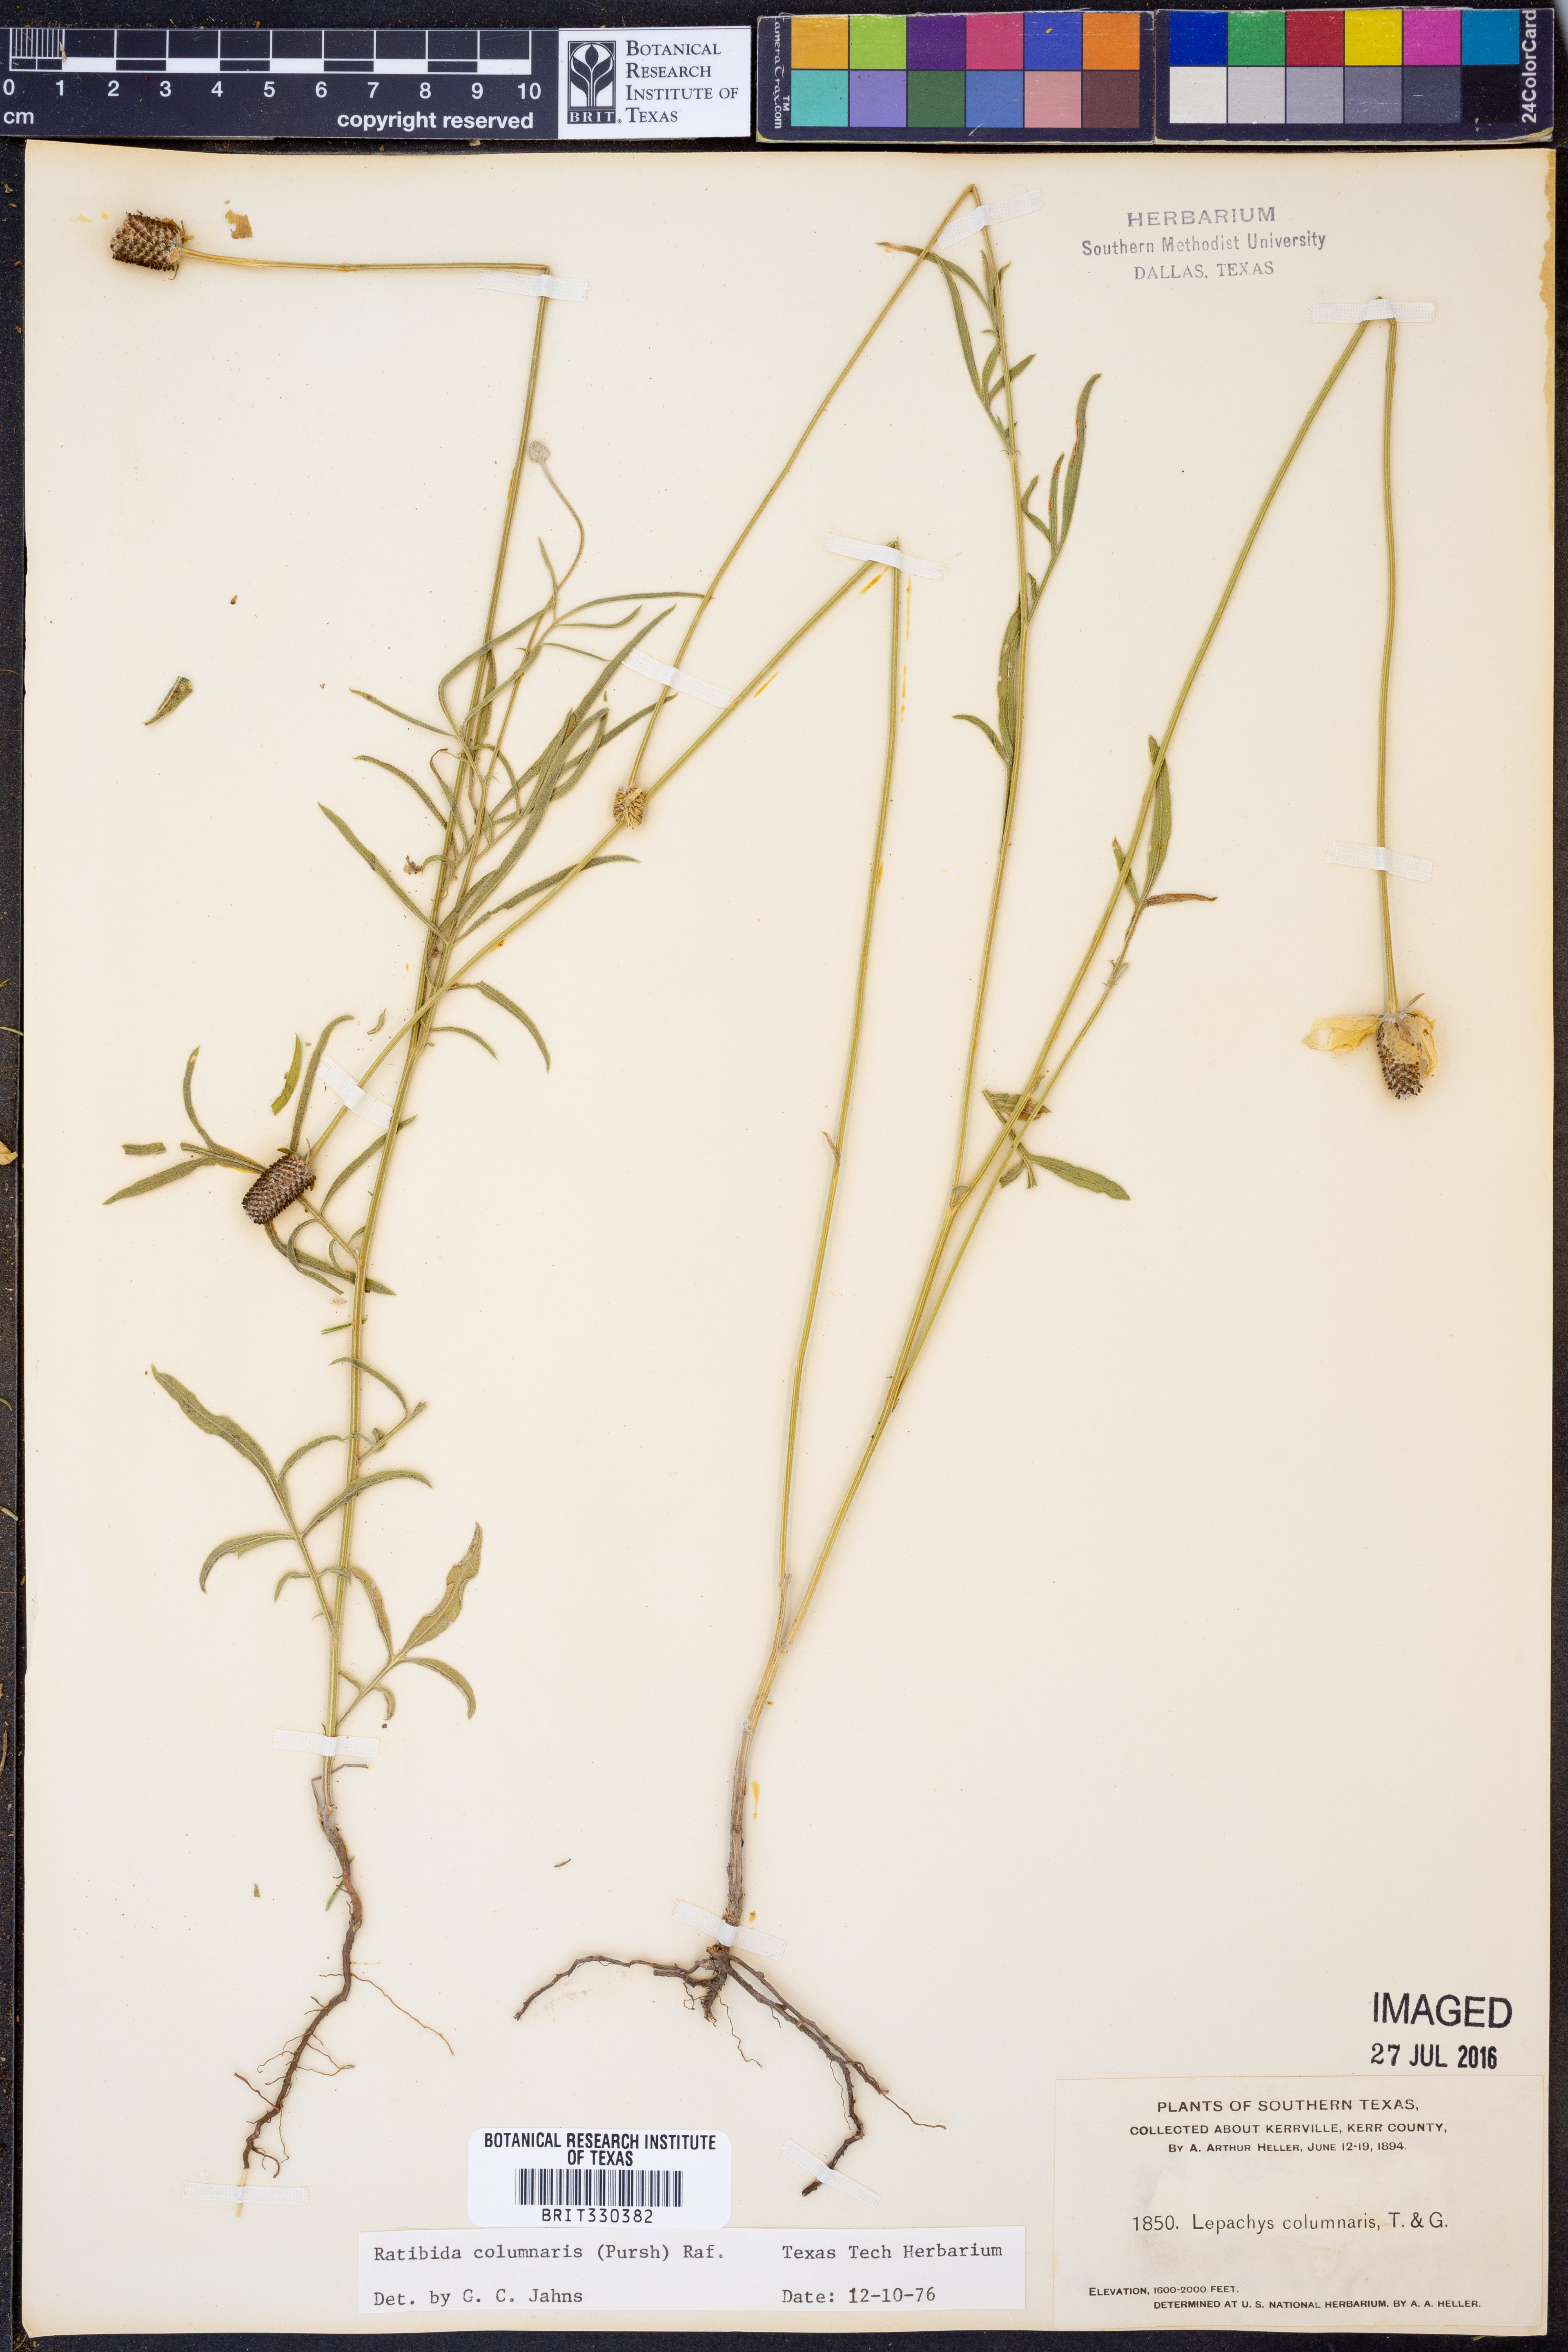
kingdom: Plantae
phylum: Tracheophyta
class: Magnoliopsida
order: Asterales
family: Asteraceae
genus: Ratibida
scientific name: Ratibida columnifera
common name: Prairie coneflower
